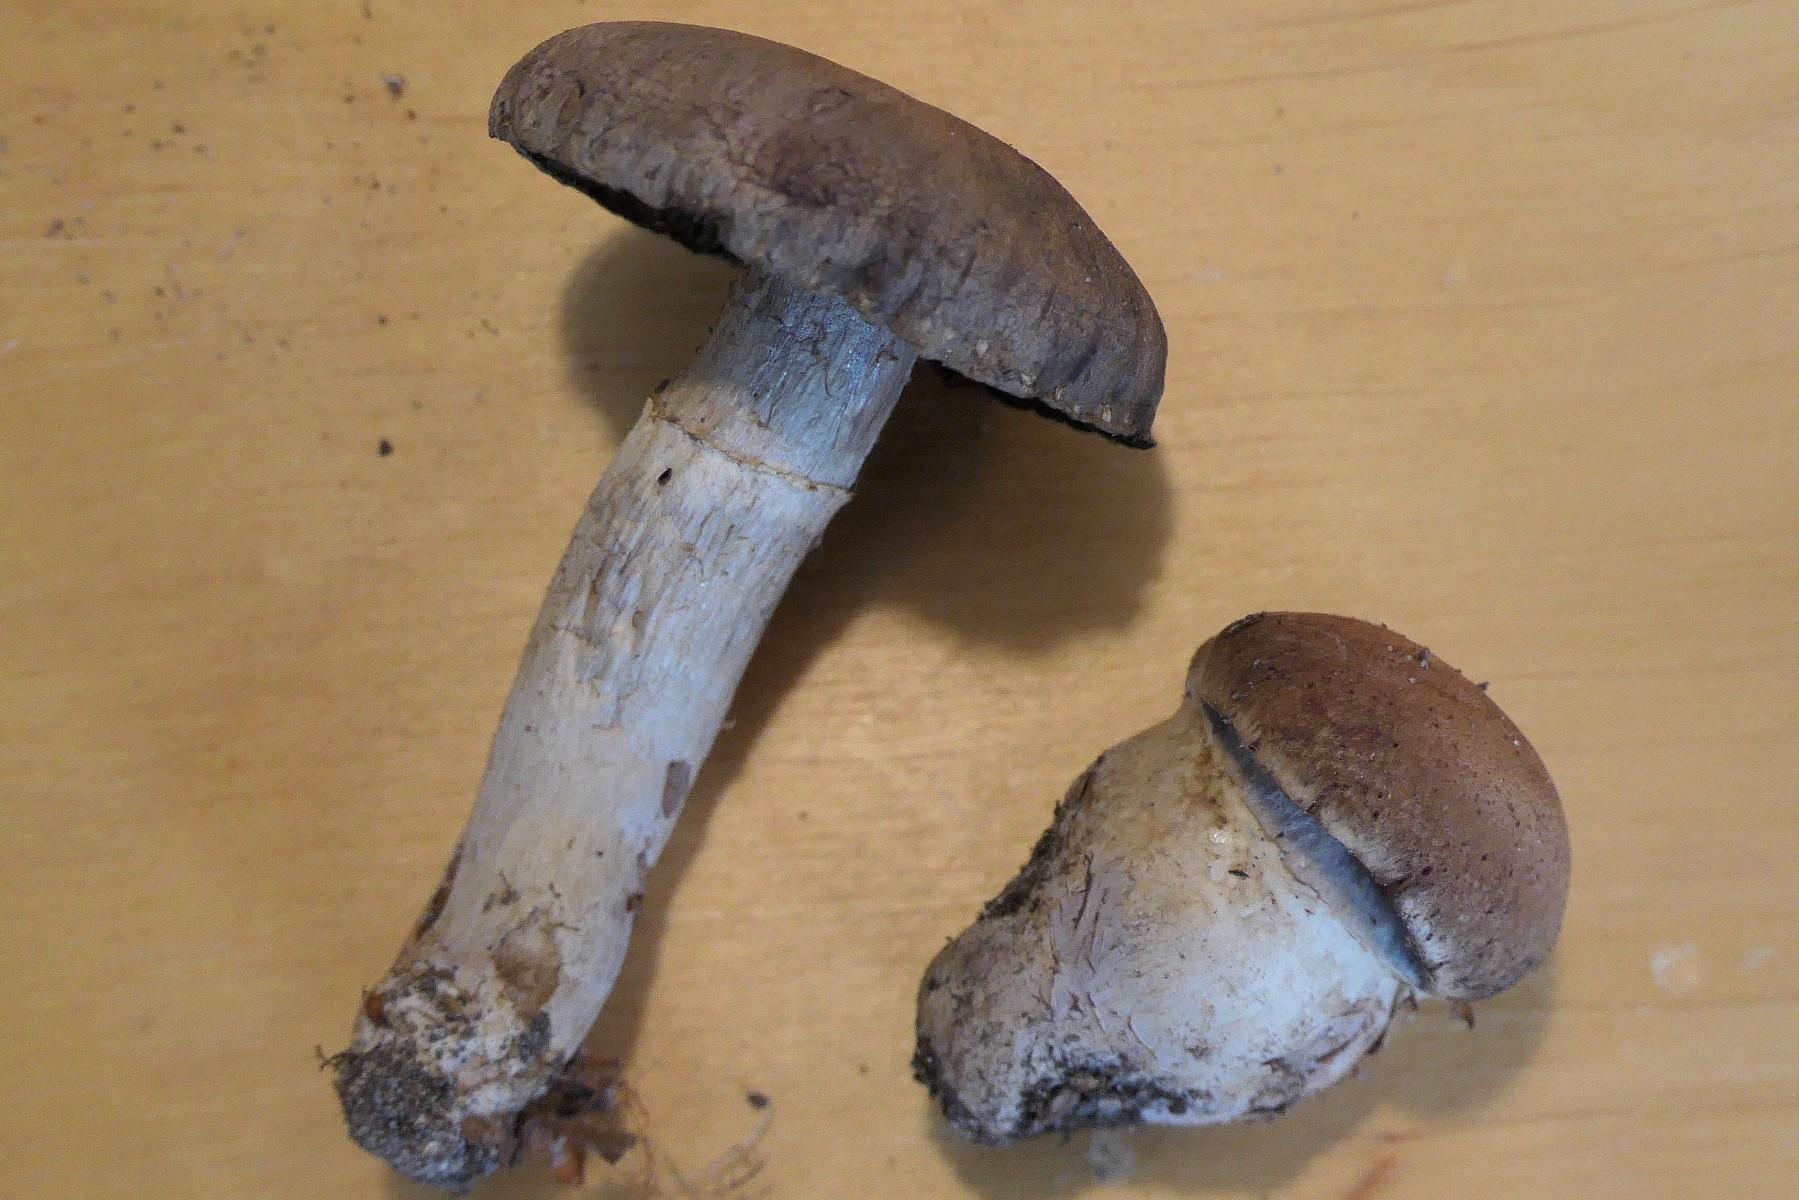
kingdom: Fungi
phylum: Basidiomycota
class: Agaricomycetes
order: Agaricales
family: Cortinariaceae
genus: Cortinarius
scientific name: Cortinarius torvus
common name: champignonagtig slørhat
